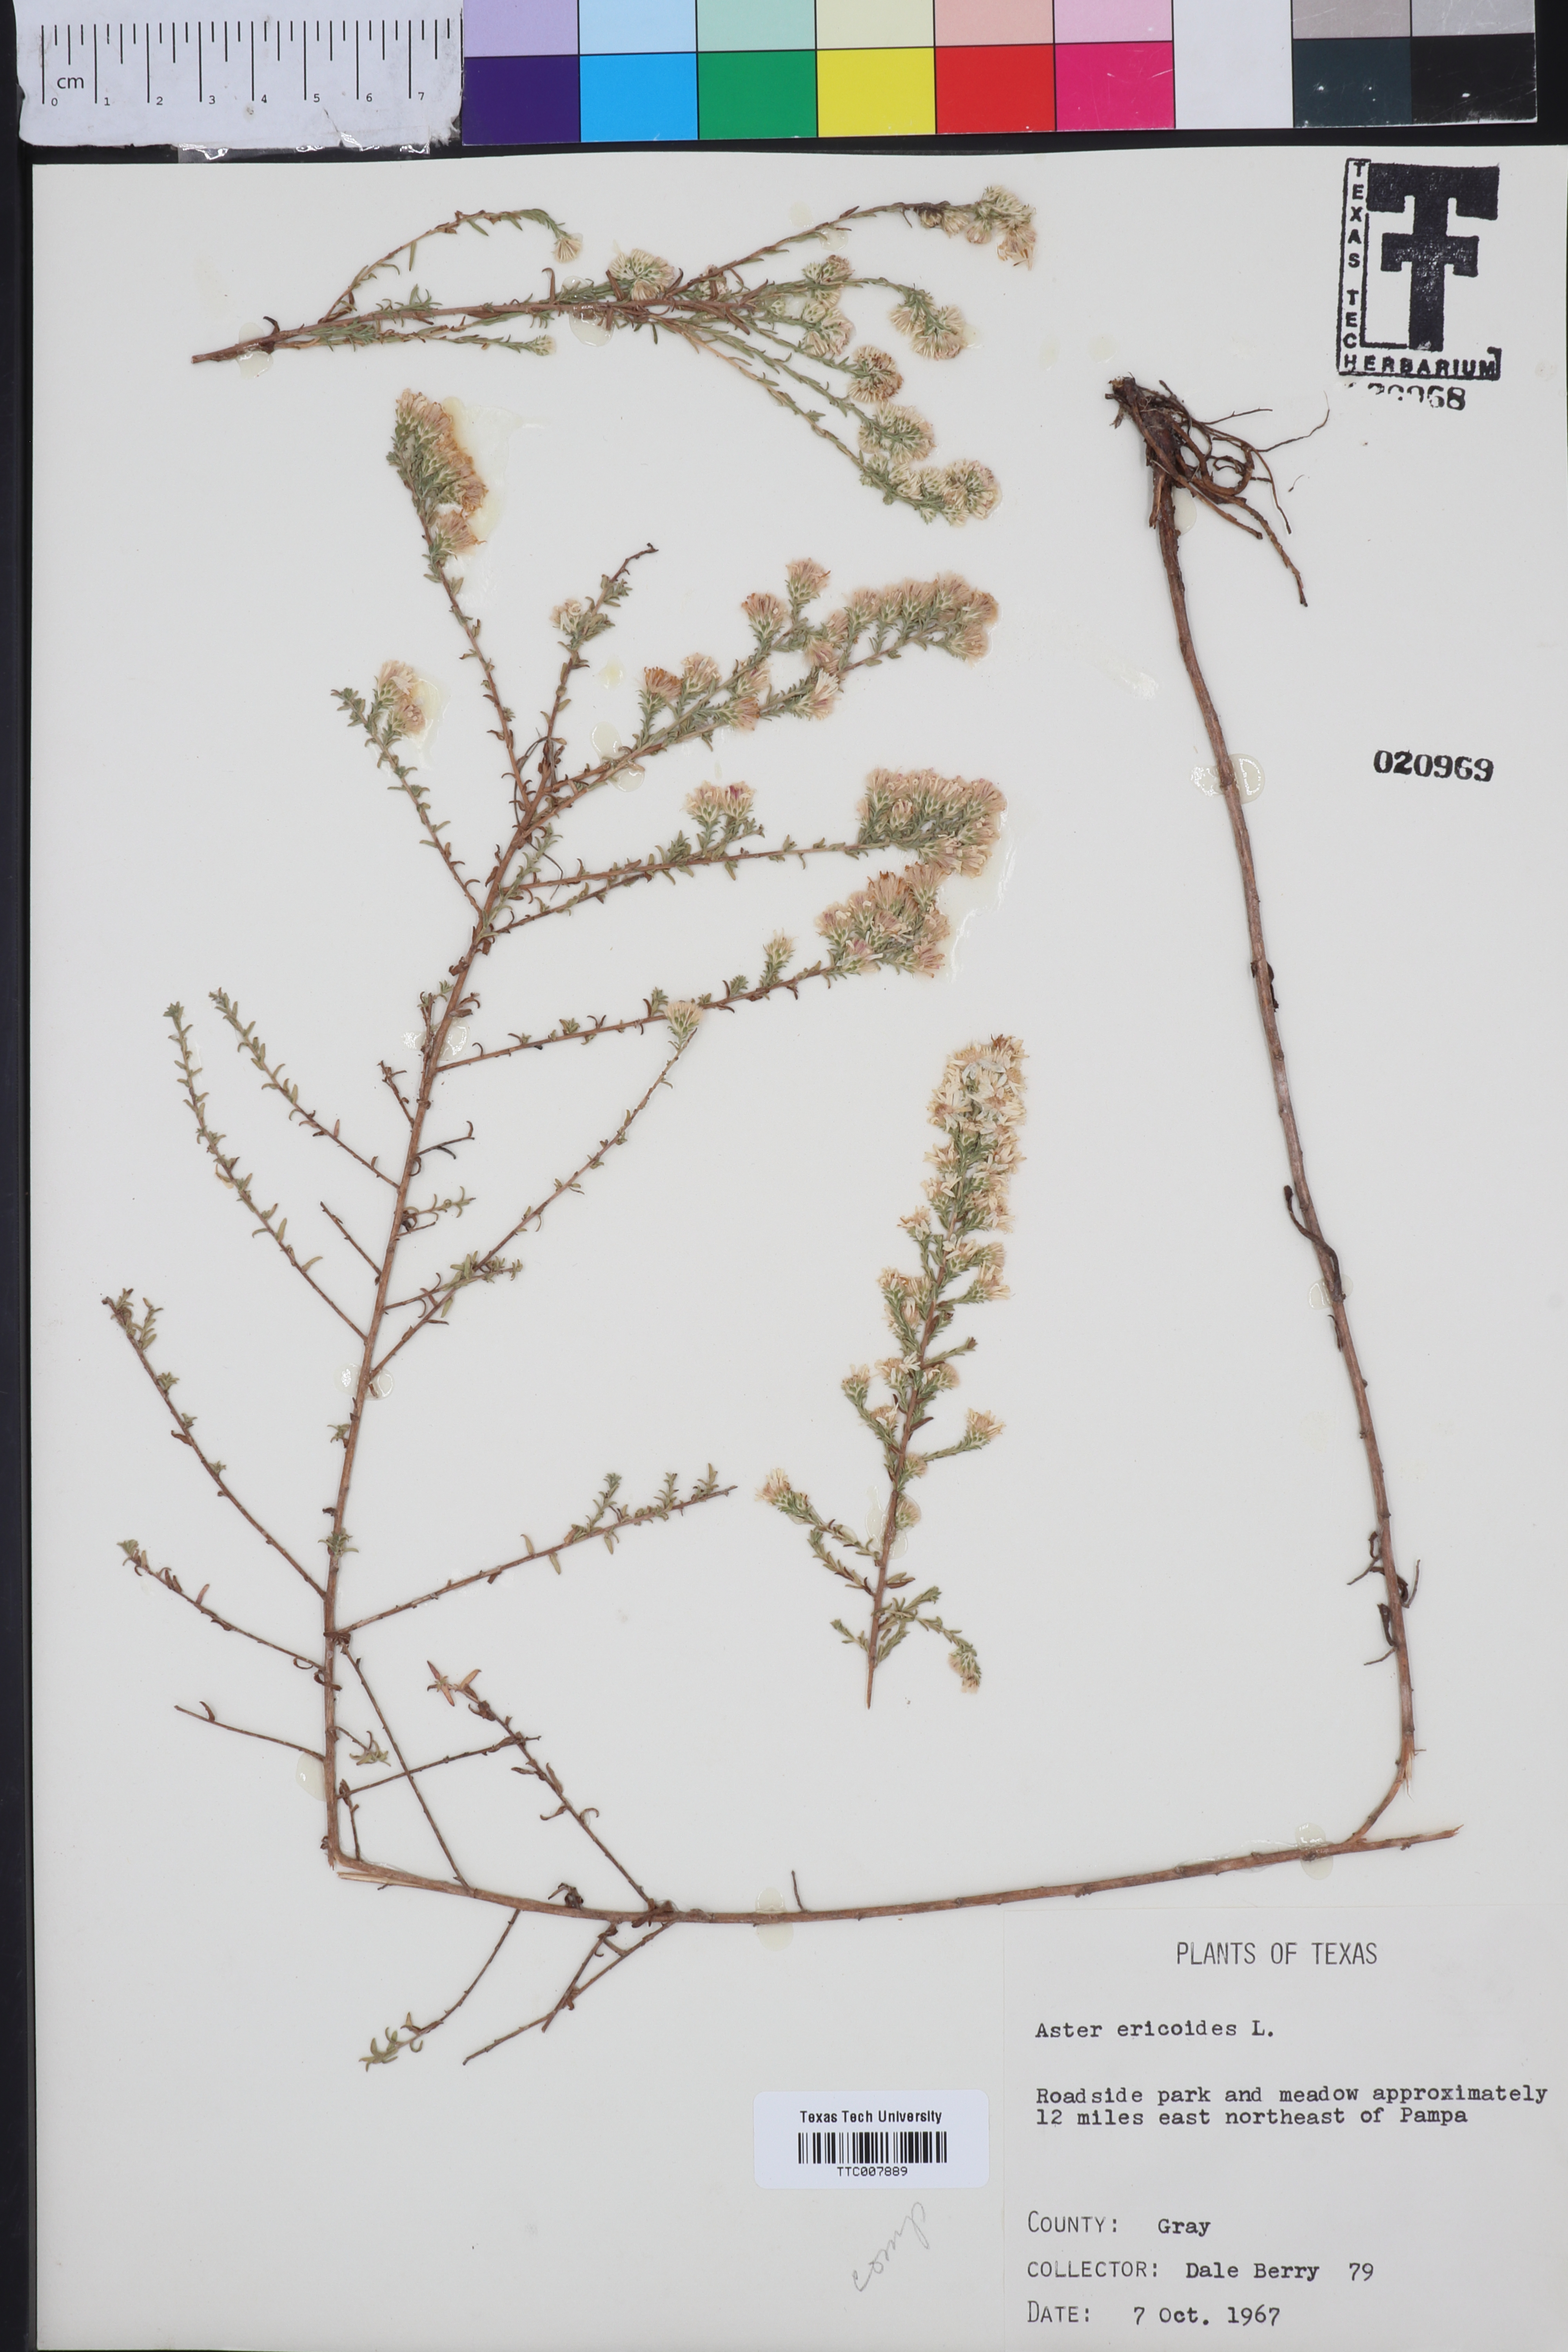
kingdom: Plantae
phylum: Tracheophyta
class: Magnoliopsida
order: Asterales
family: Asteraceae
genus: Symphyotrichum
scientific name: Symphyotrichum ericoides
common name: Heath aster
